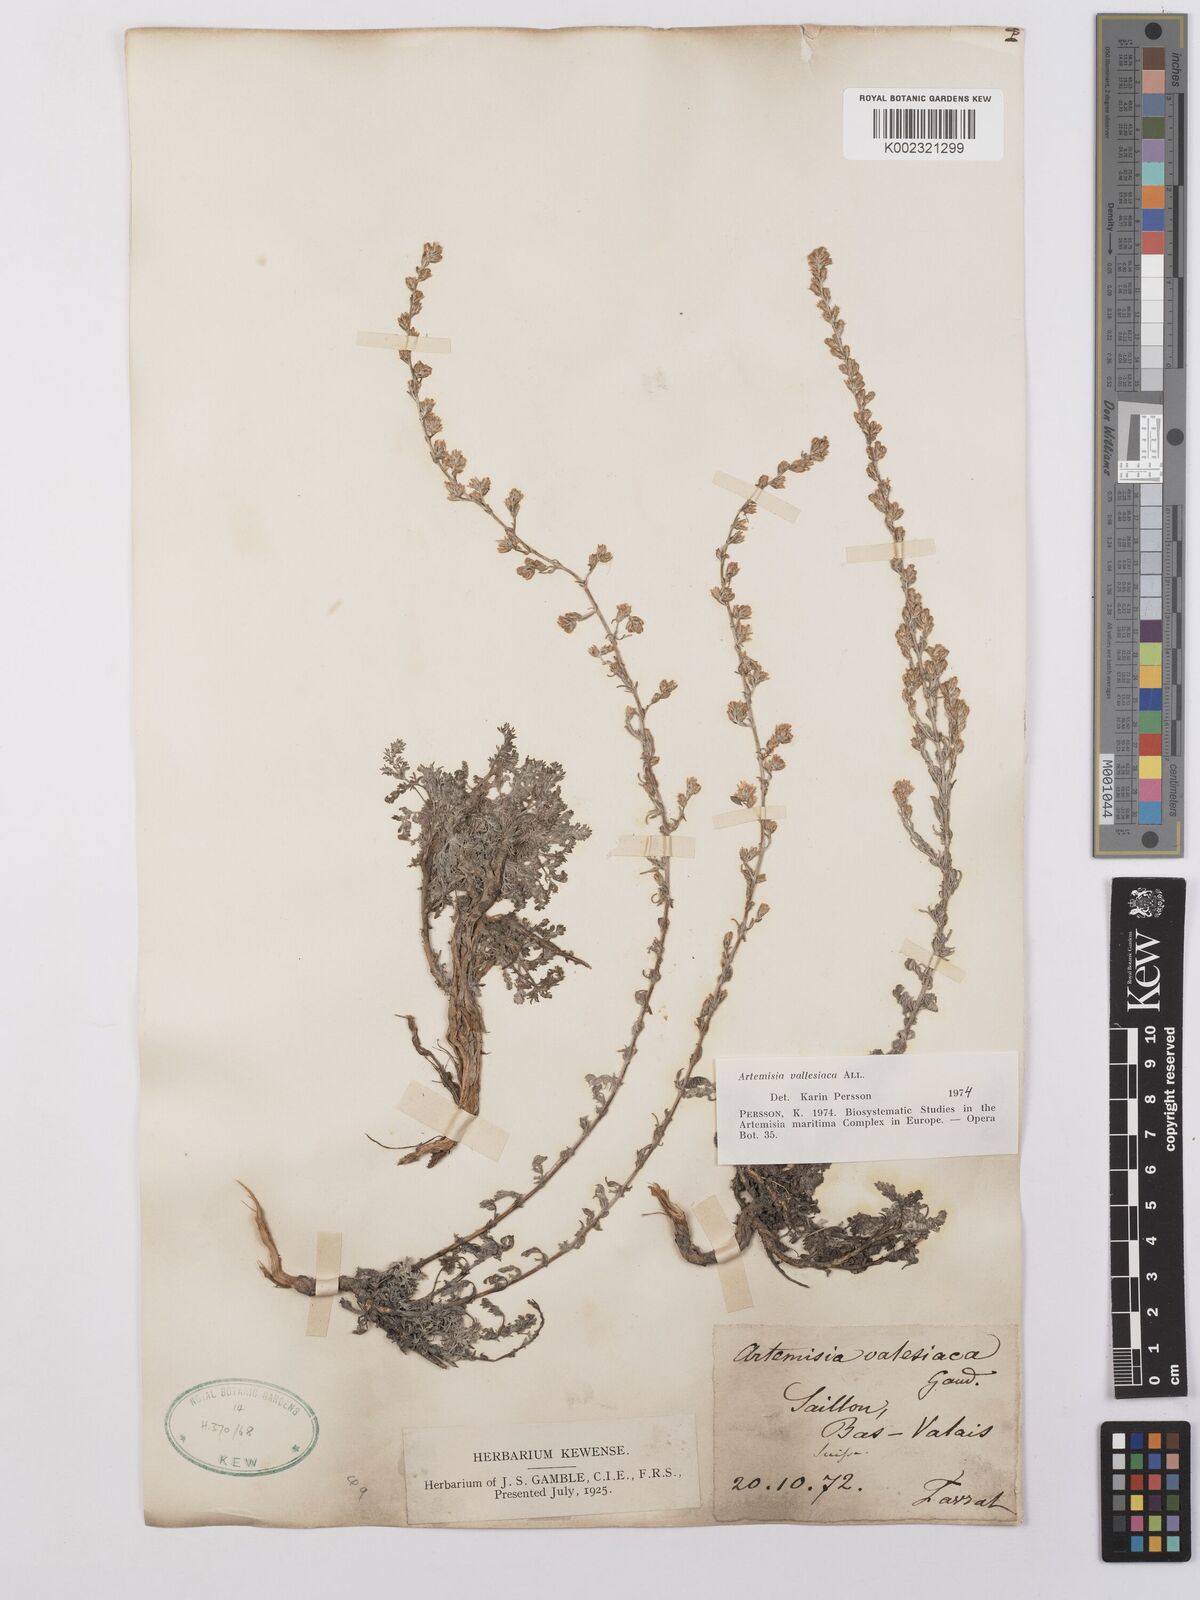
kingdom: Plantae
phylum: Tracheophyta
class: Magnoliopsida
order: Asterales
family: Asteraceae
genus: Artemisia
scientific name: Artemisia vallesiaca
